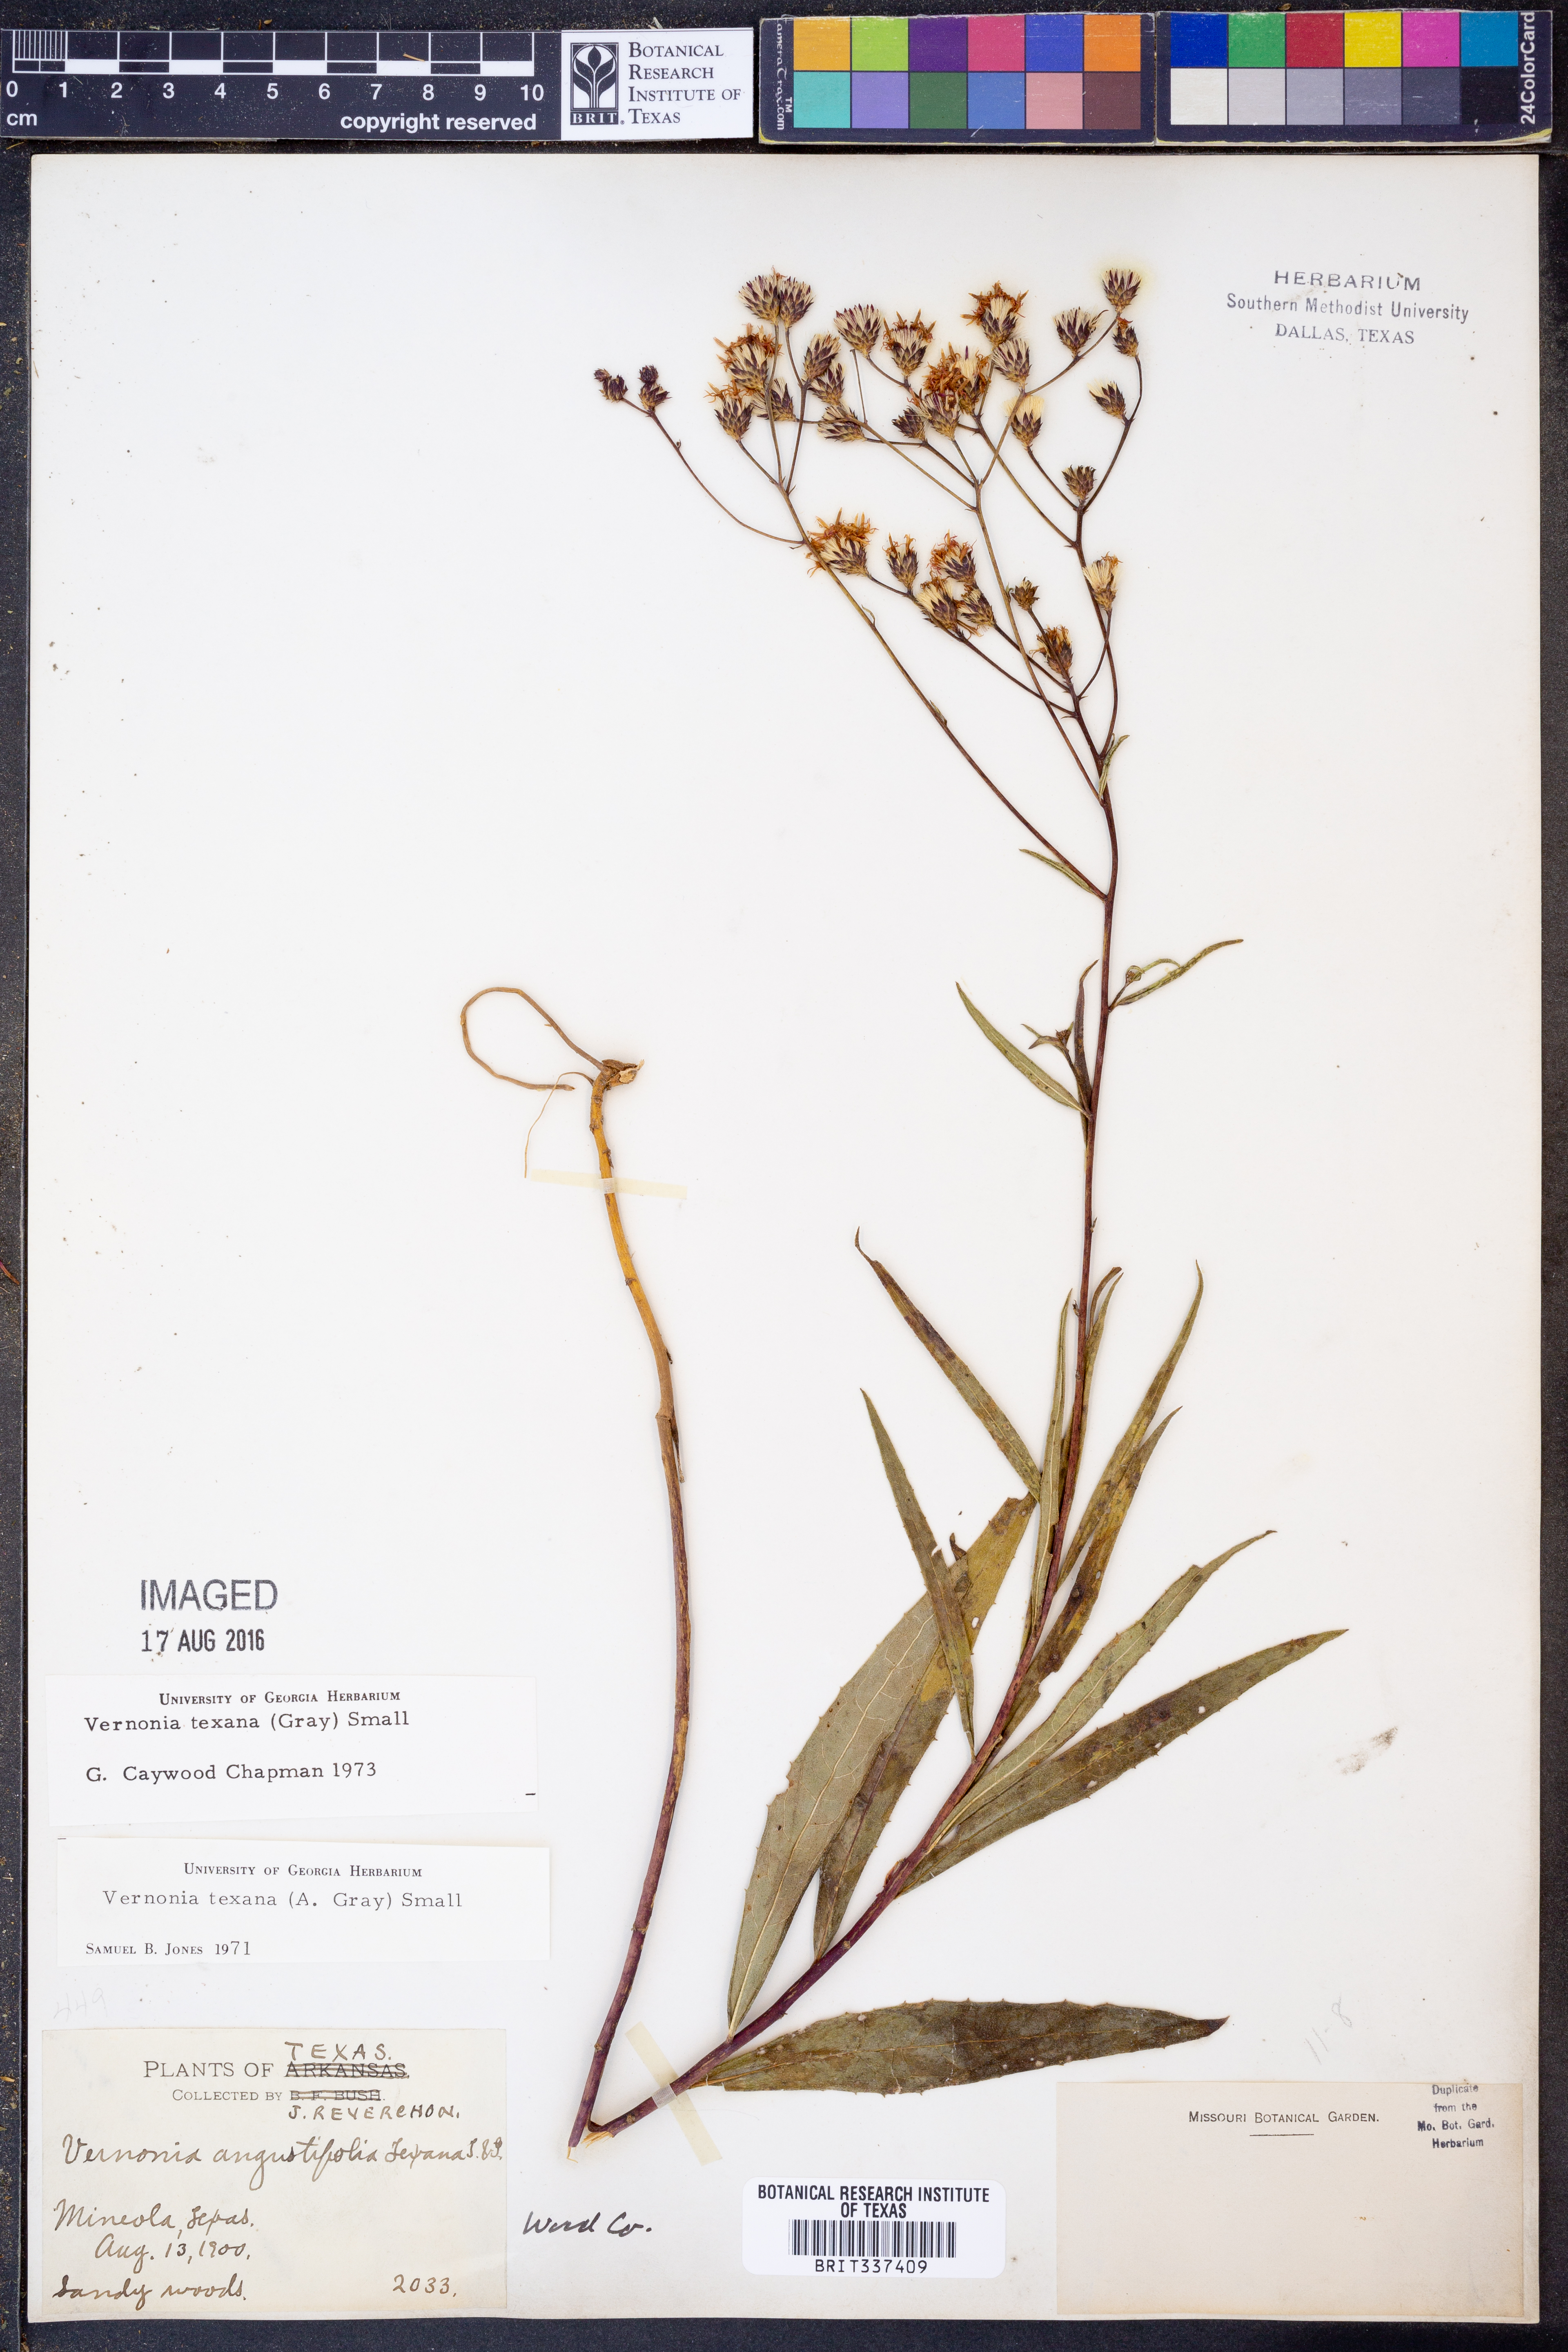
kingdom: Plantae
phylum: Tracheophyta
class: Magnoliopsida
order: Asterales
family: Asteraceae
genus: Vernonia
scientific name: Vernonia texana
